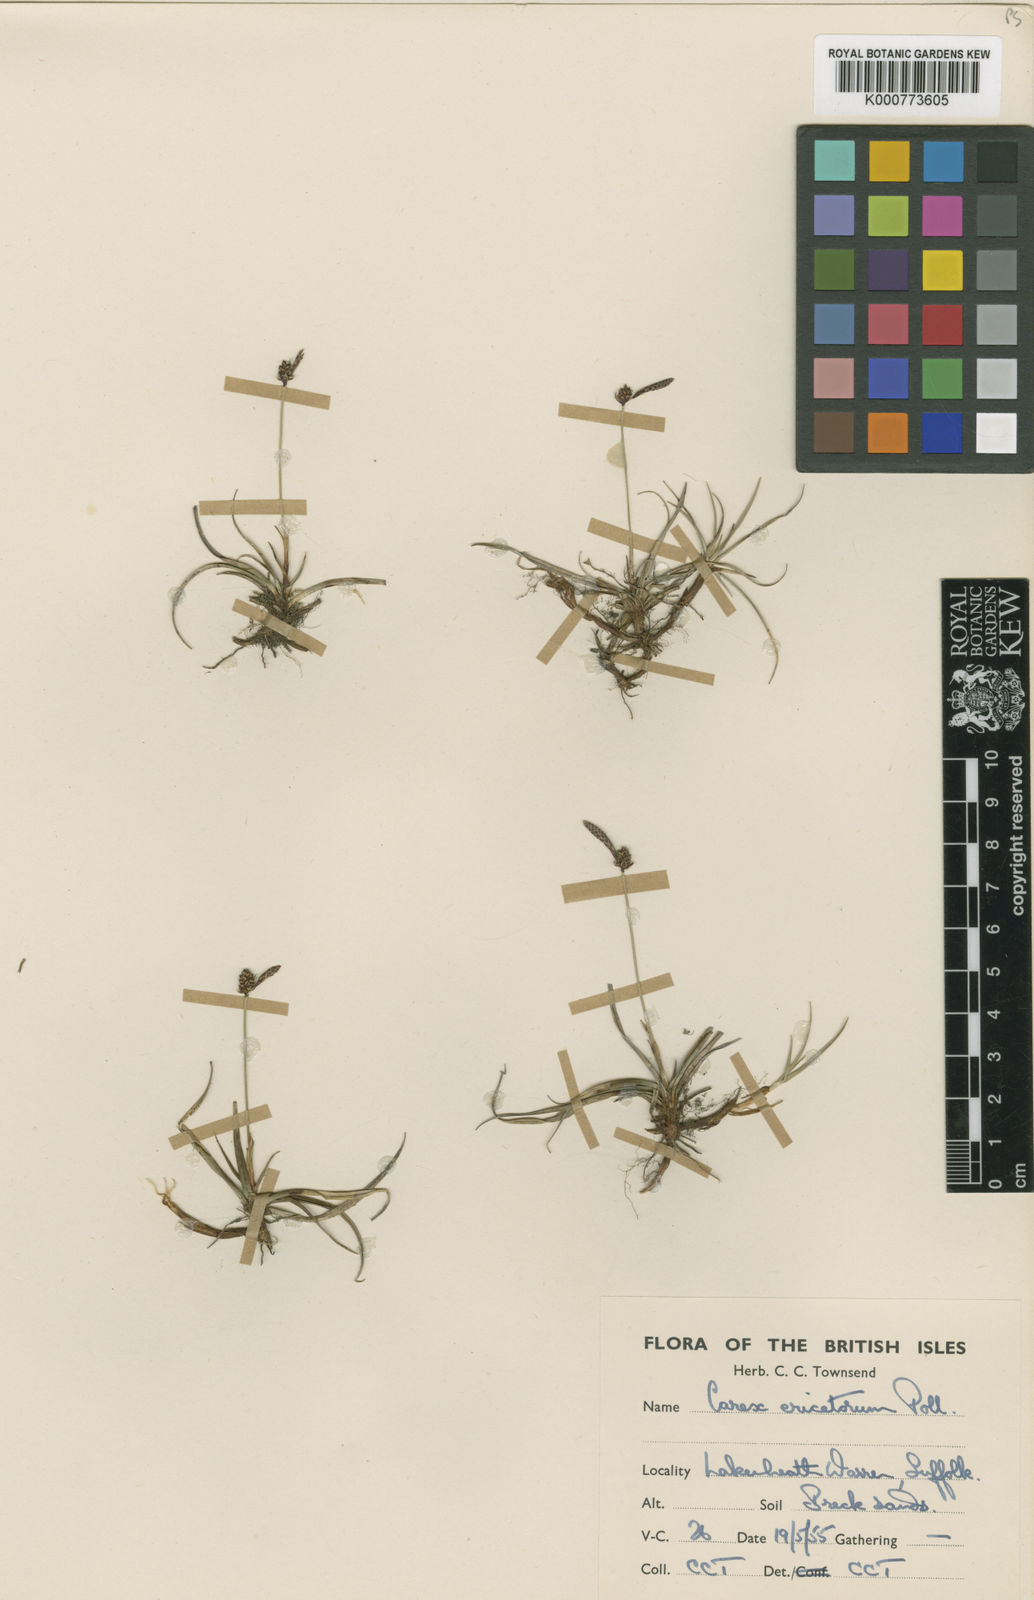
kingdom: Plantae
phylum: Tracheophyta
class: Liliopsida
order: Poales
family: Cyperaceae
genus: Carex
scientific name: Carex ericetorum
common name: Rare spring-sedge
